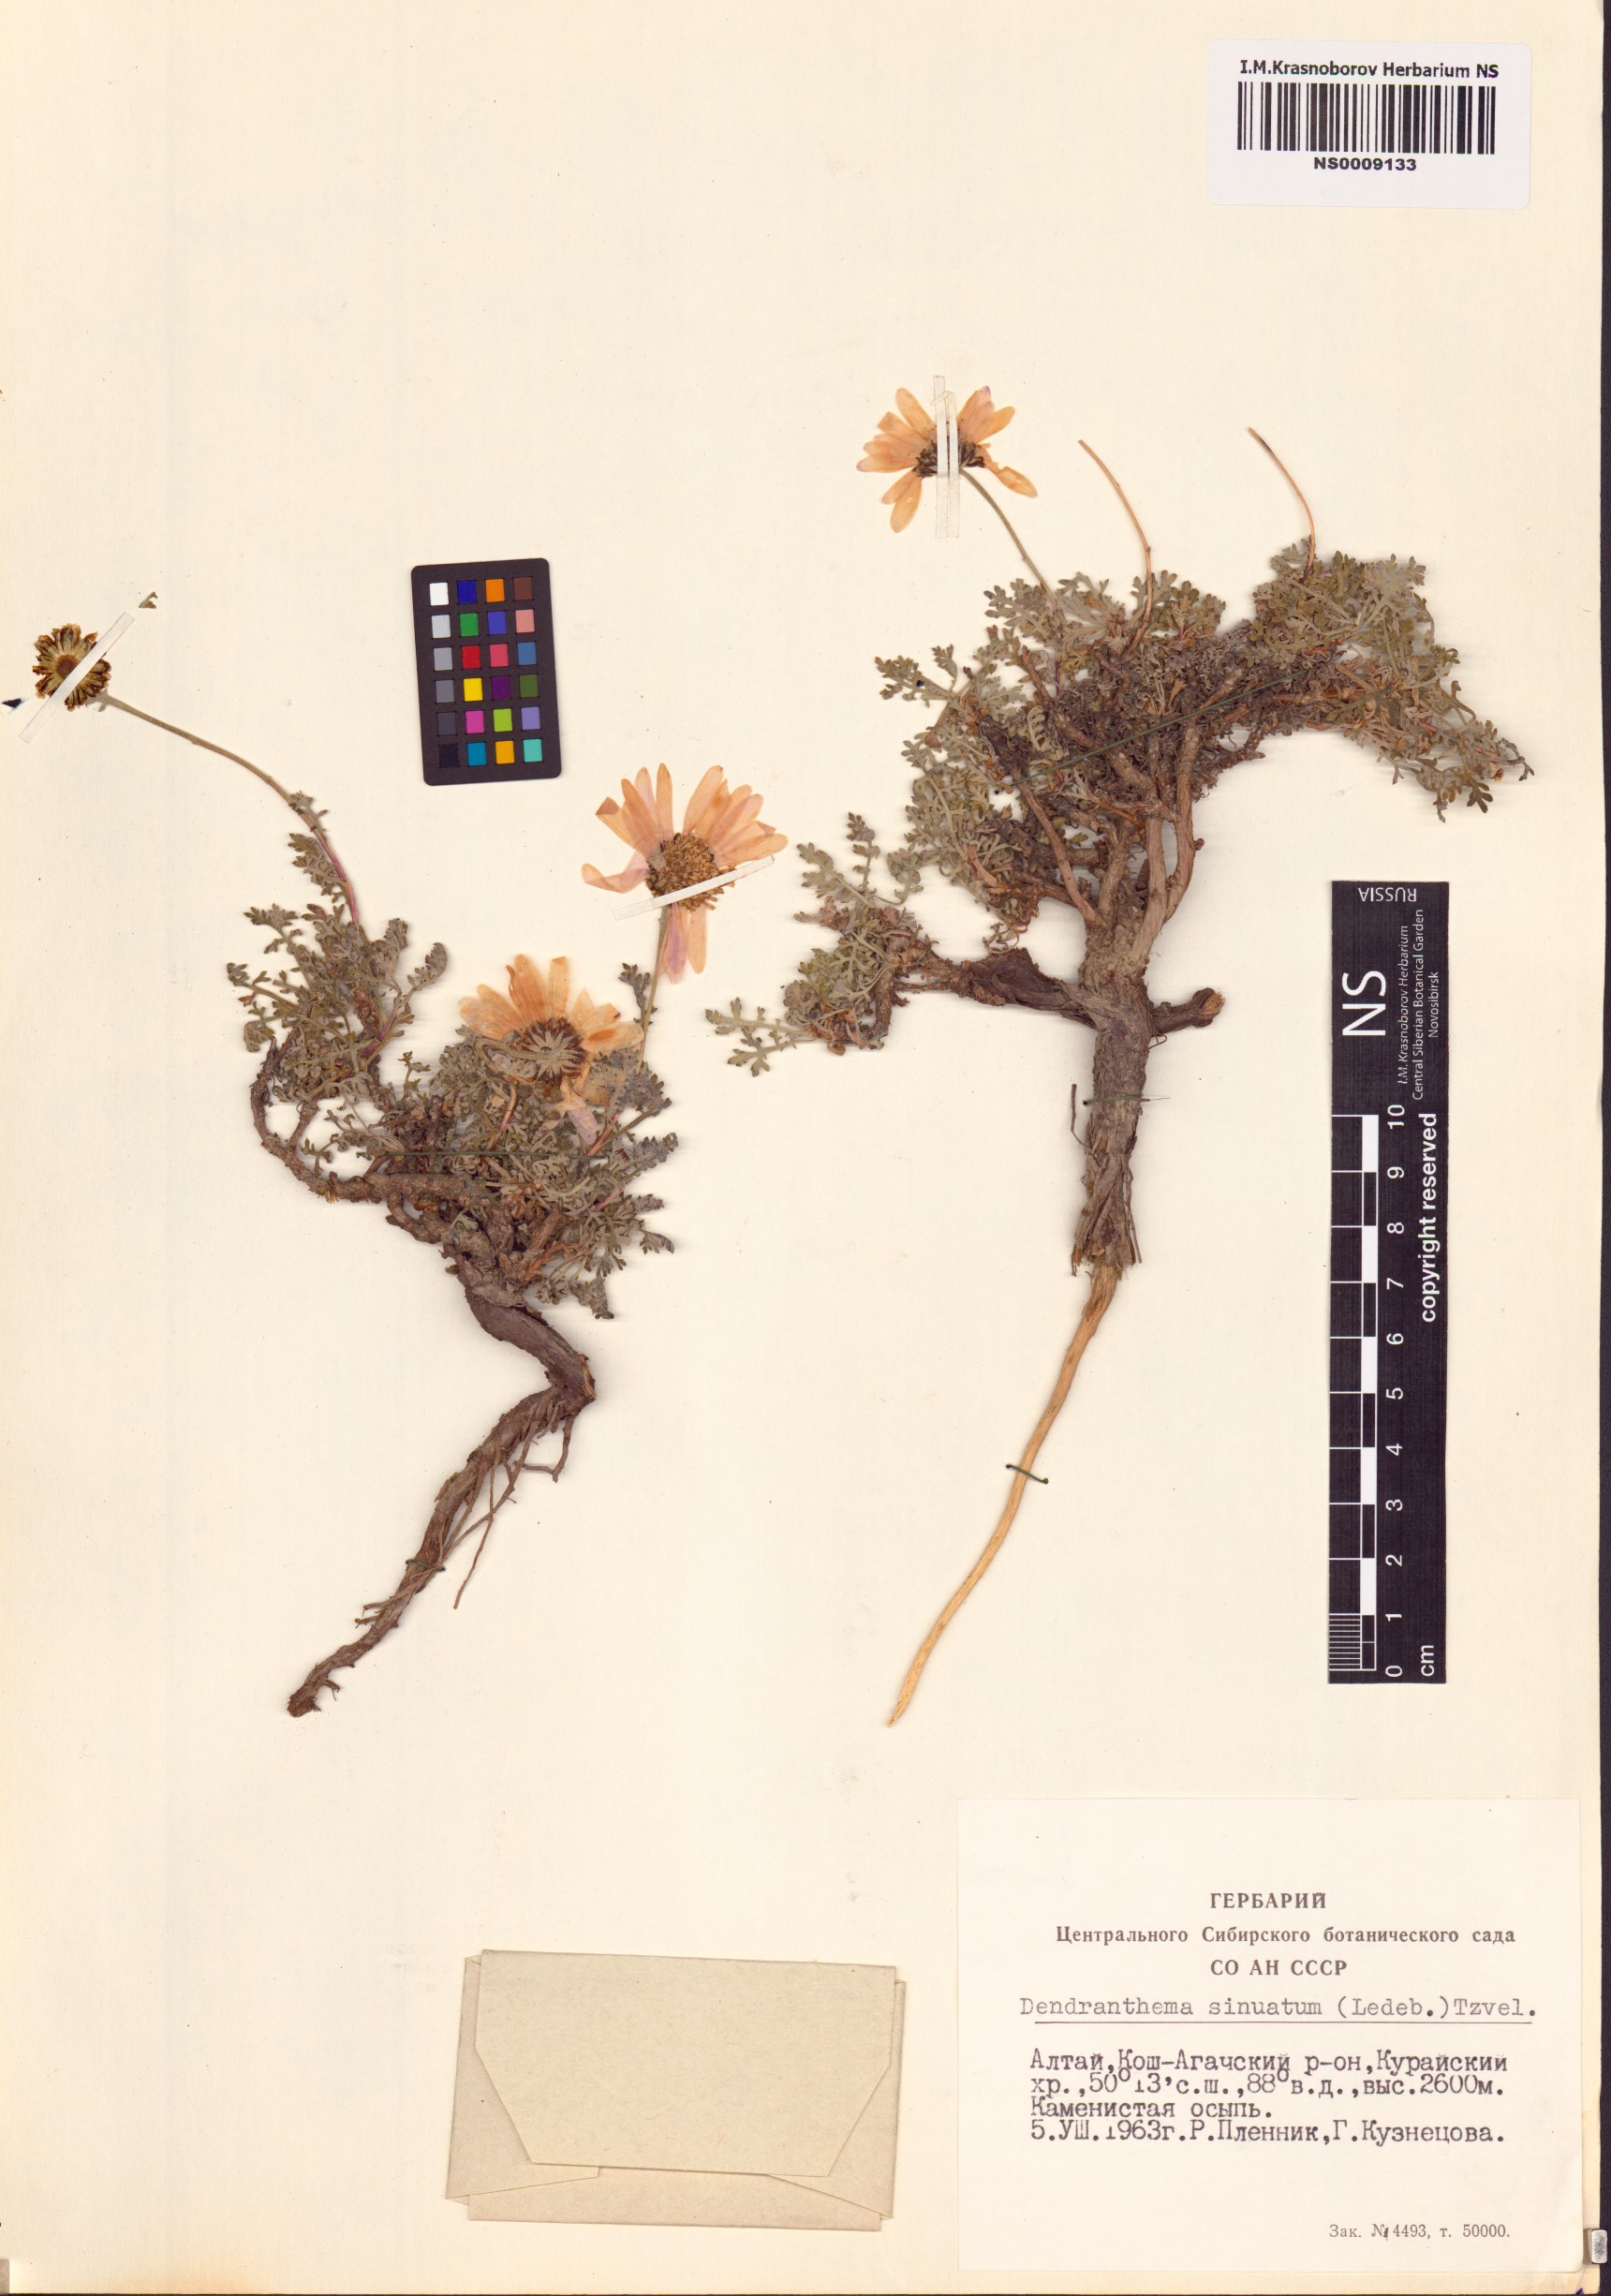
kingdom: Plantae
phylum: Tracheophyta
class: Magnoliopsida
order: Asterales
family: Asteraceae
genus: Chrysanthemum
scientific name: Chrysanthemum sinuatum
